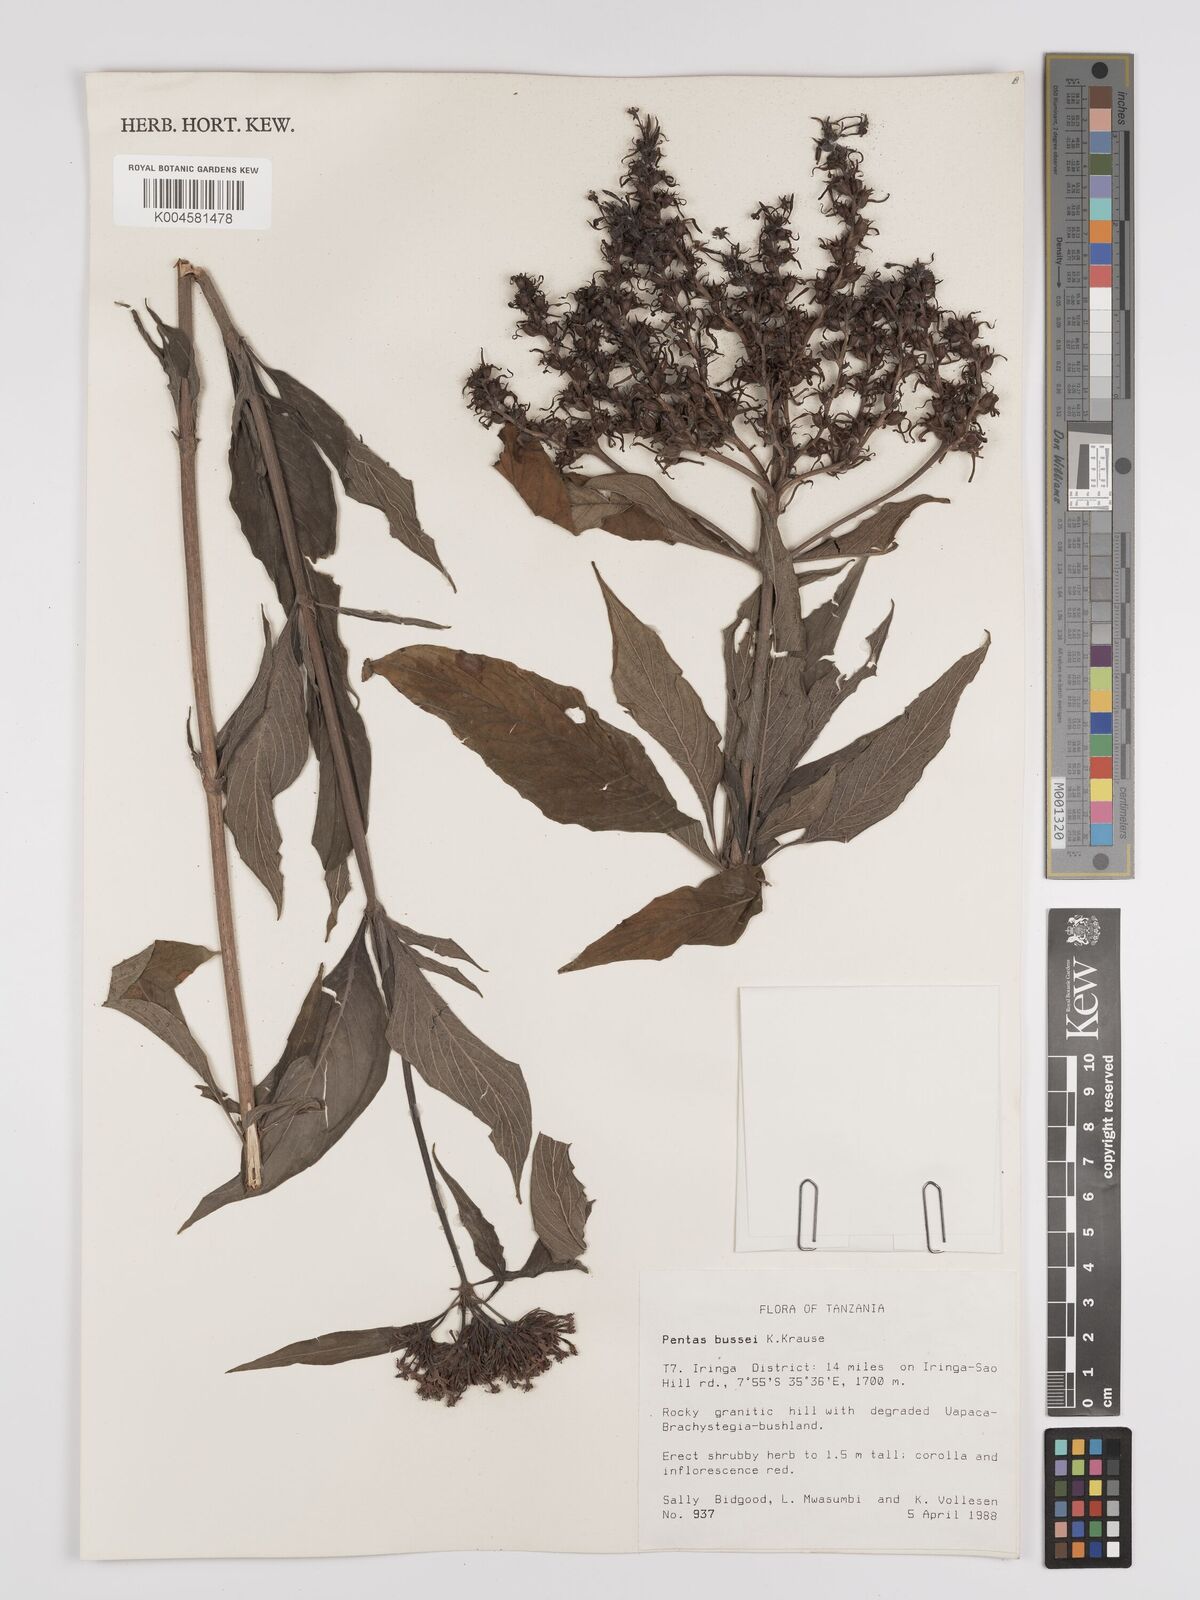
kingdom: Plantae
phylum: Tracheophyta
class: Magnoliopsida
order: Gentianales
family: Rubiaceae
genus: Rhodopentas
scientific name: Rhodopentas bussei
